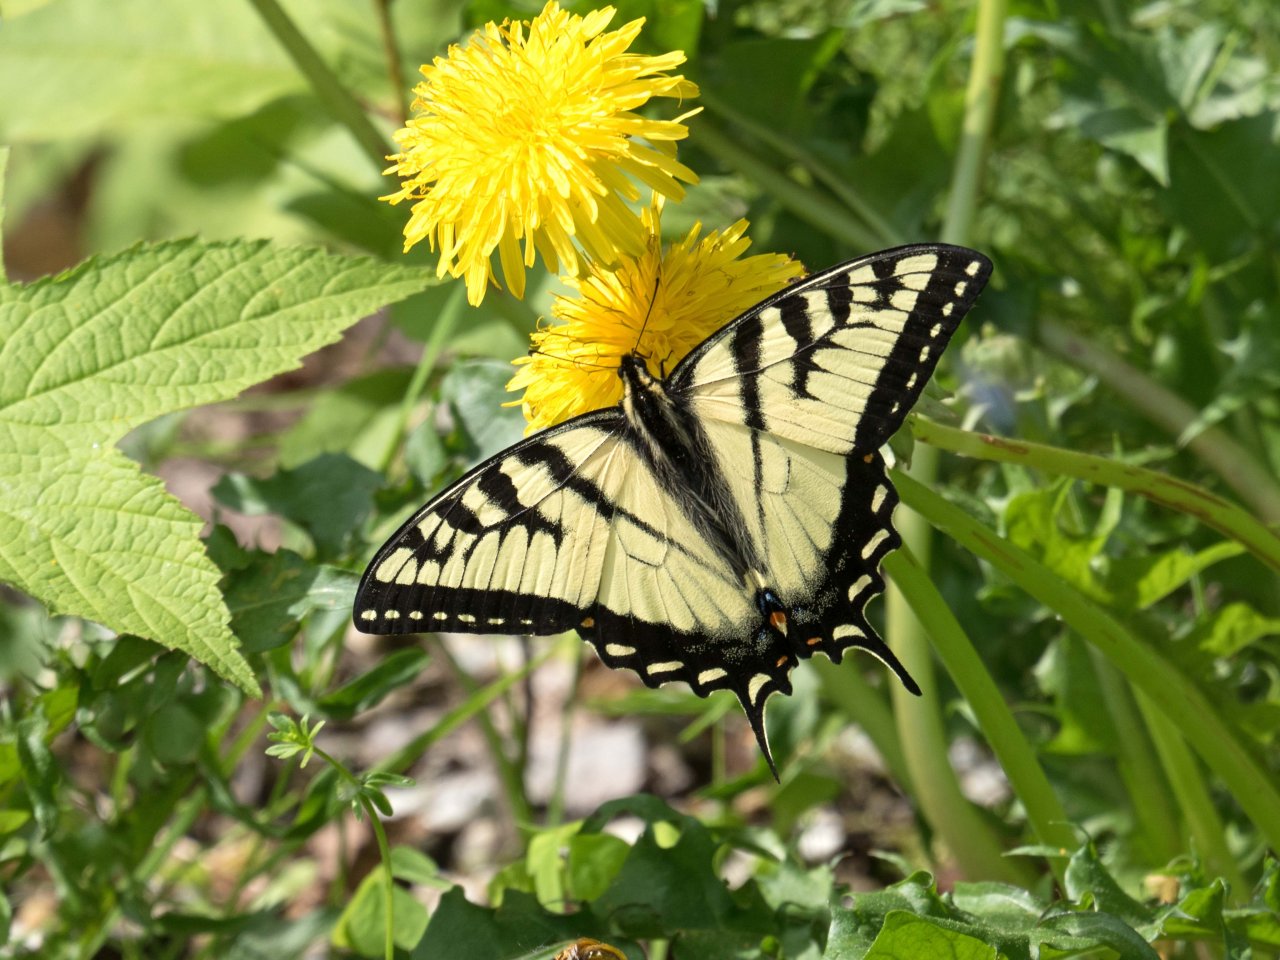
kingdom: Animalia
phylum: Arthropoda
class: Insecta
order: Lepidoptera
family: Papilionidae
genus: Pterourus
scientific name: Pterourus canadensis
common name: Canadian Tiger Swallowtail
